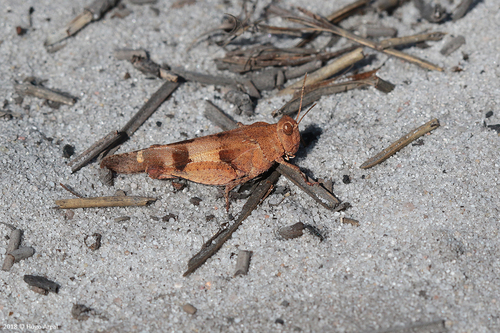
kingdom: Animalia
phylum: Arthropoda
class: Insecta
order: Orthoptera
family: Acrididae
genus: Oedipoda
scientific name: Oedipoda caerulescens
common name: Blue-winged grasshopper
